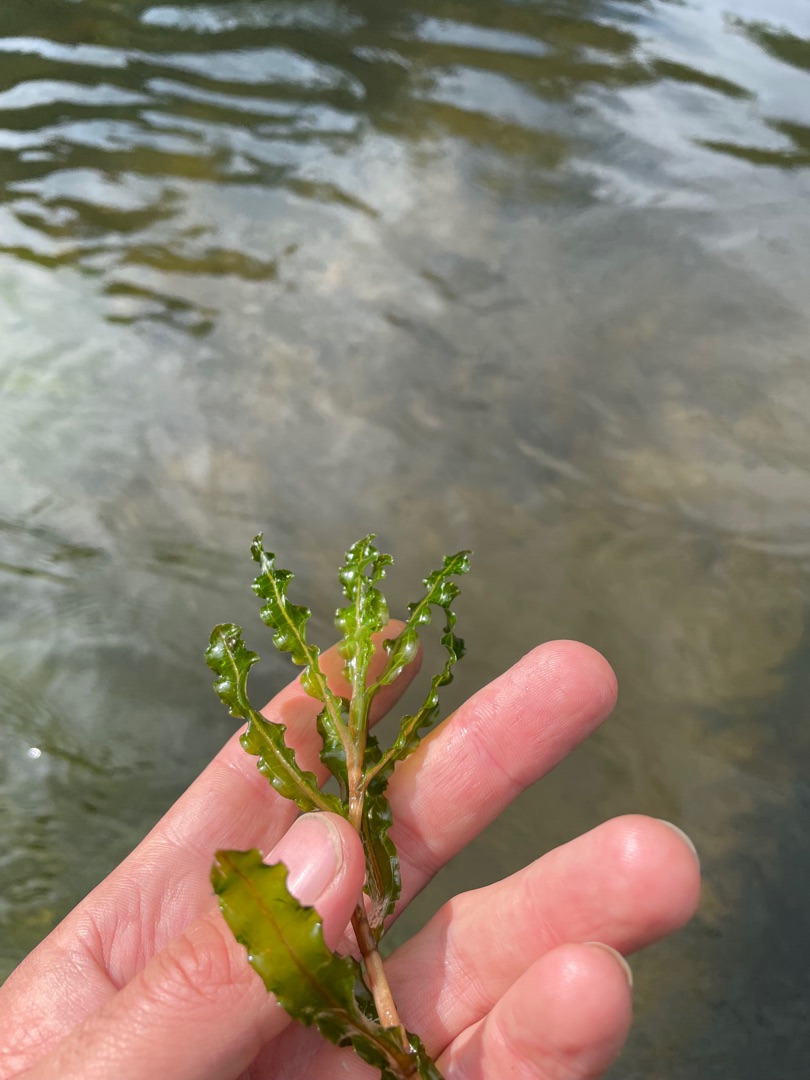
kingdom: Plantae
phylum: Tracheophyta
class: Liliopsida
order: Alismatales
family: Potamogetonaceae
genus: Potamogeton
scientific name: Potamogeton crispus
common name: Kruset vandaks
